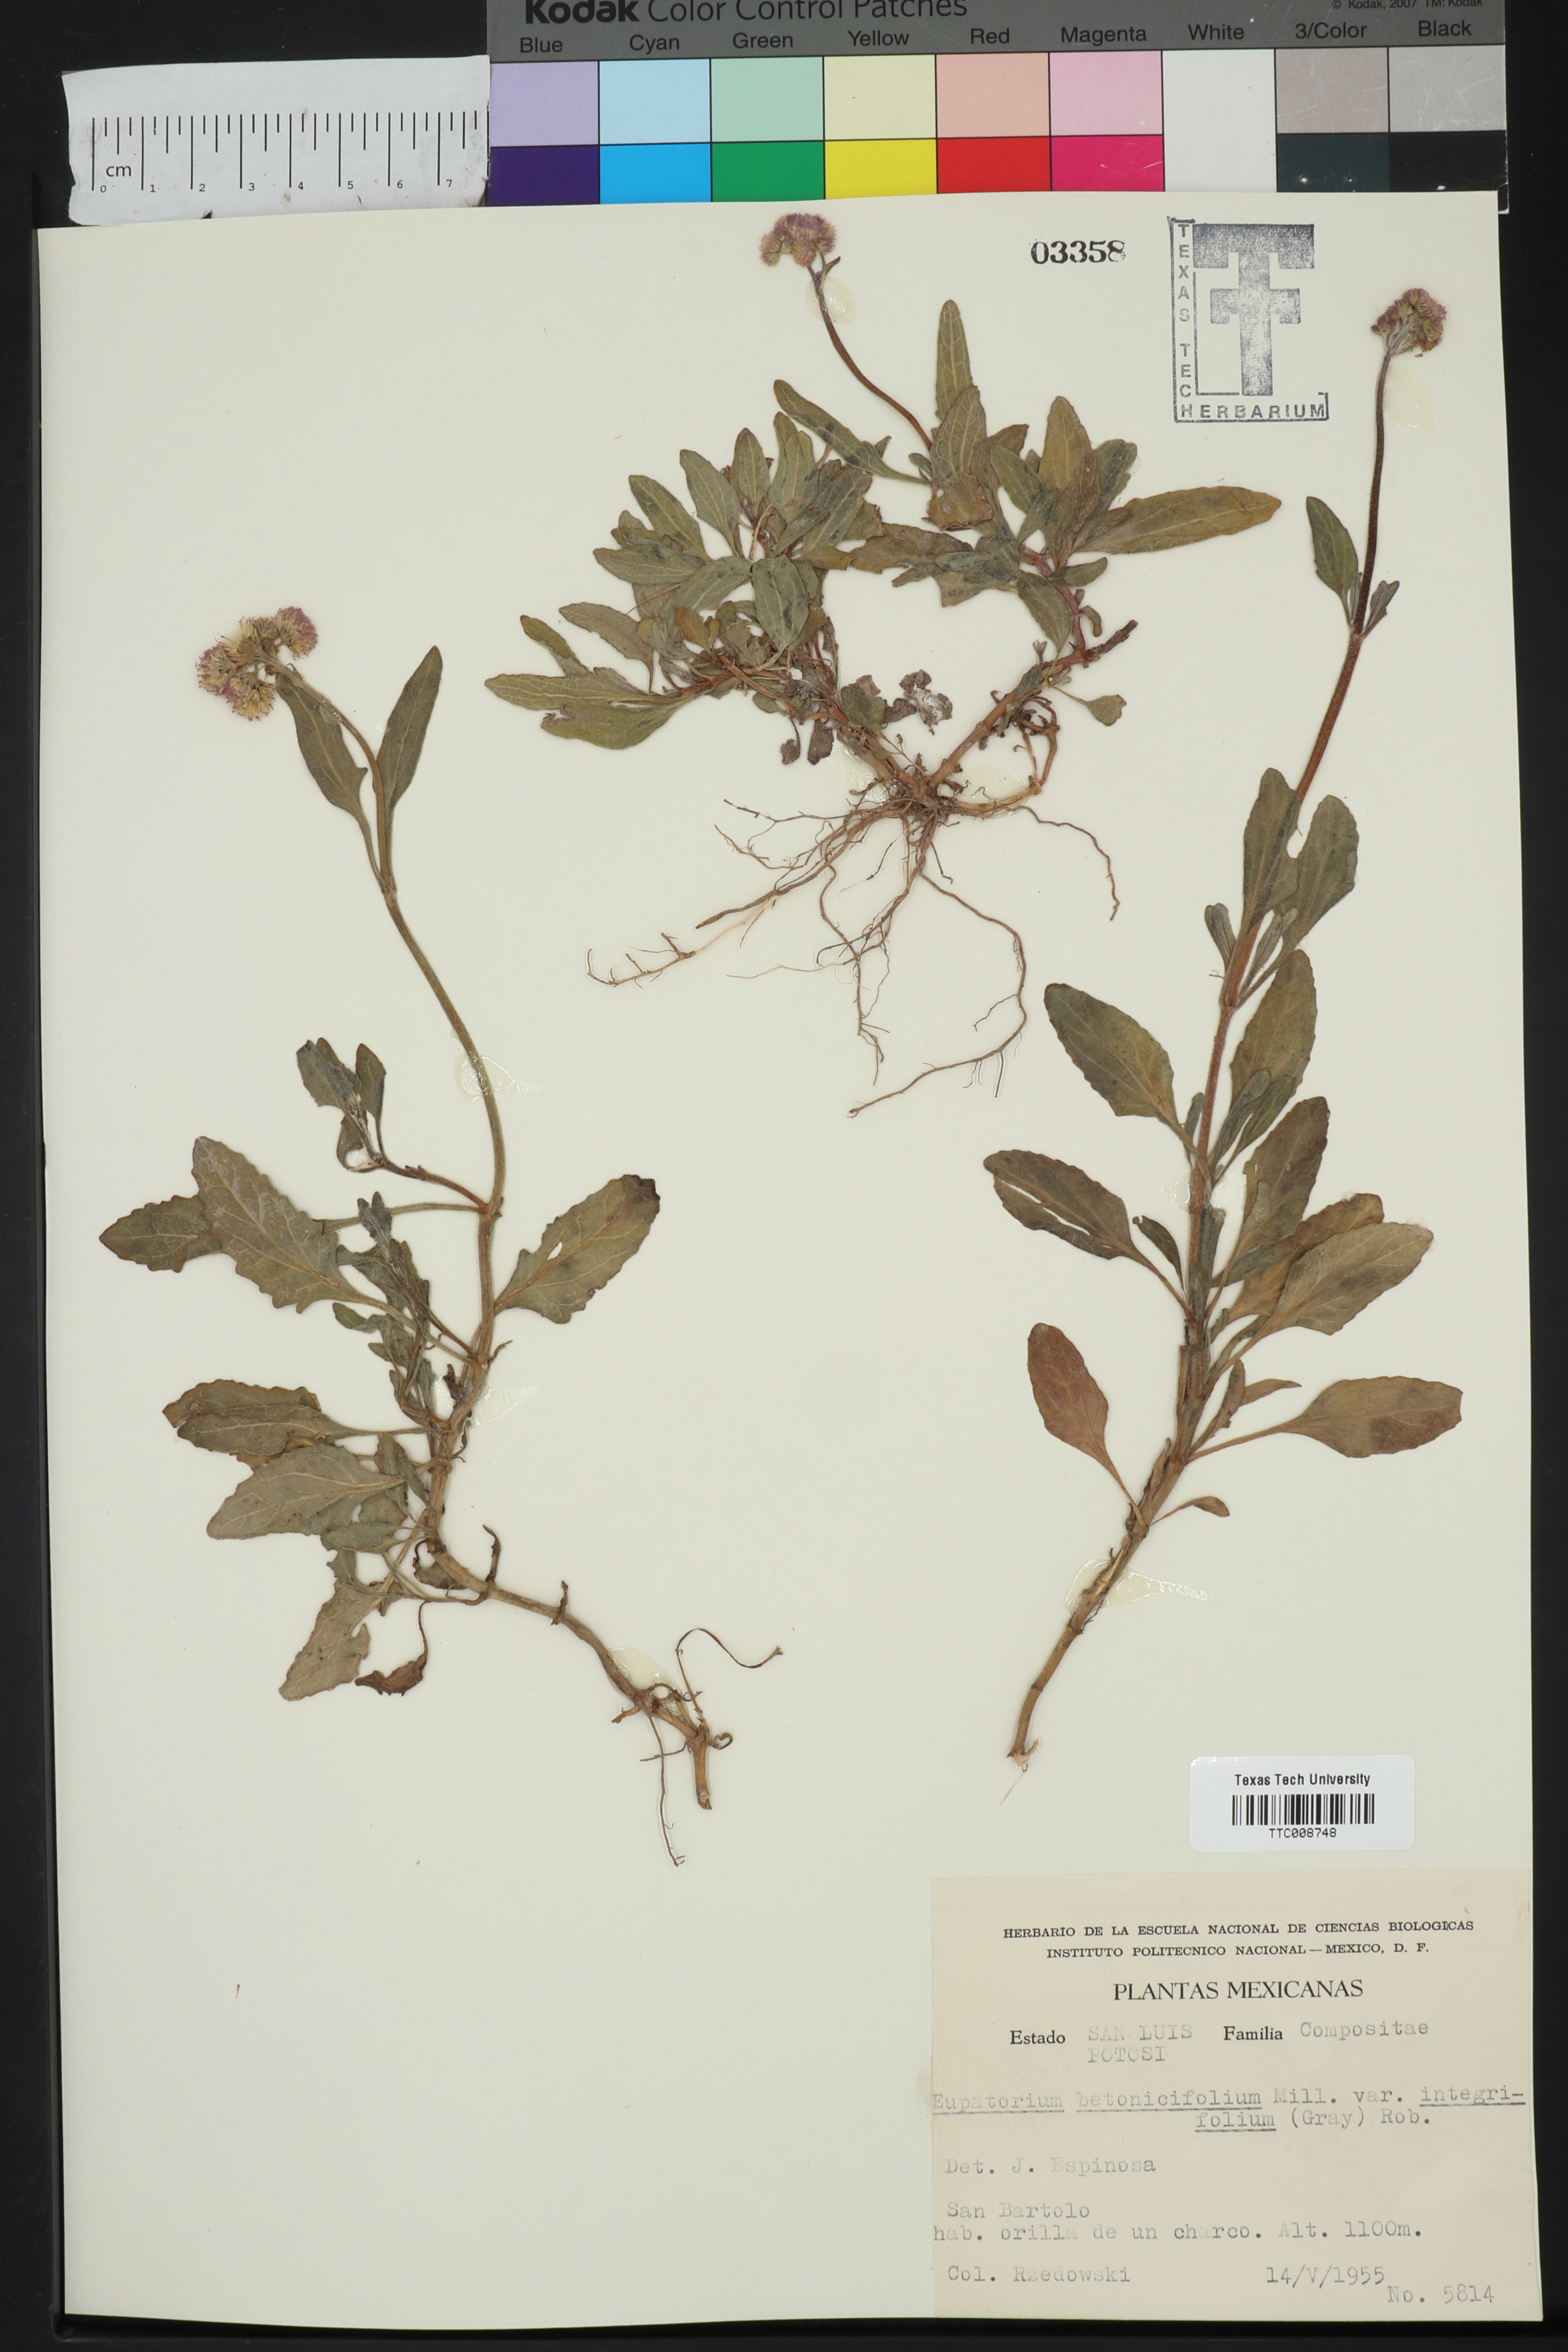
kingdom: Plantae
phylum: Tracheophyta
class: Magnoliopsida
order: Asterales
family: Asteraceae
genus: Conoclinium
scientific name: Conoclinium betonicifolium
